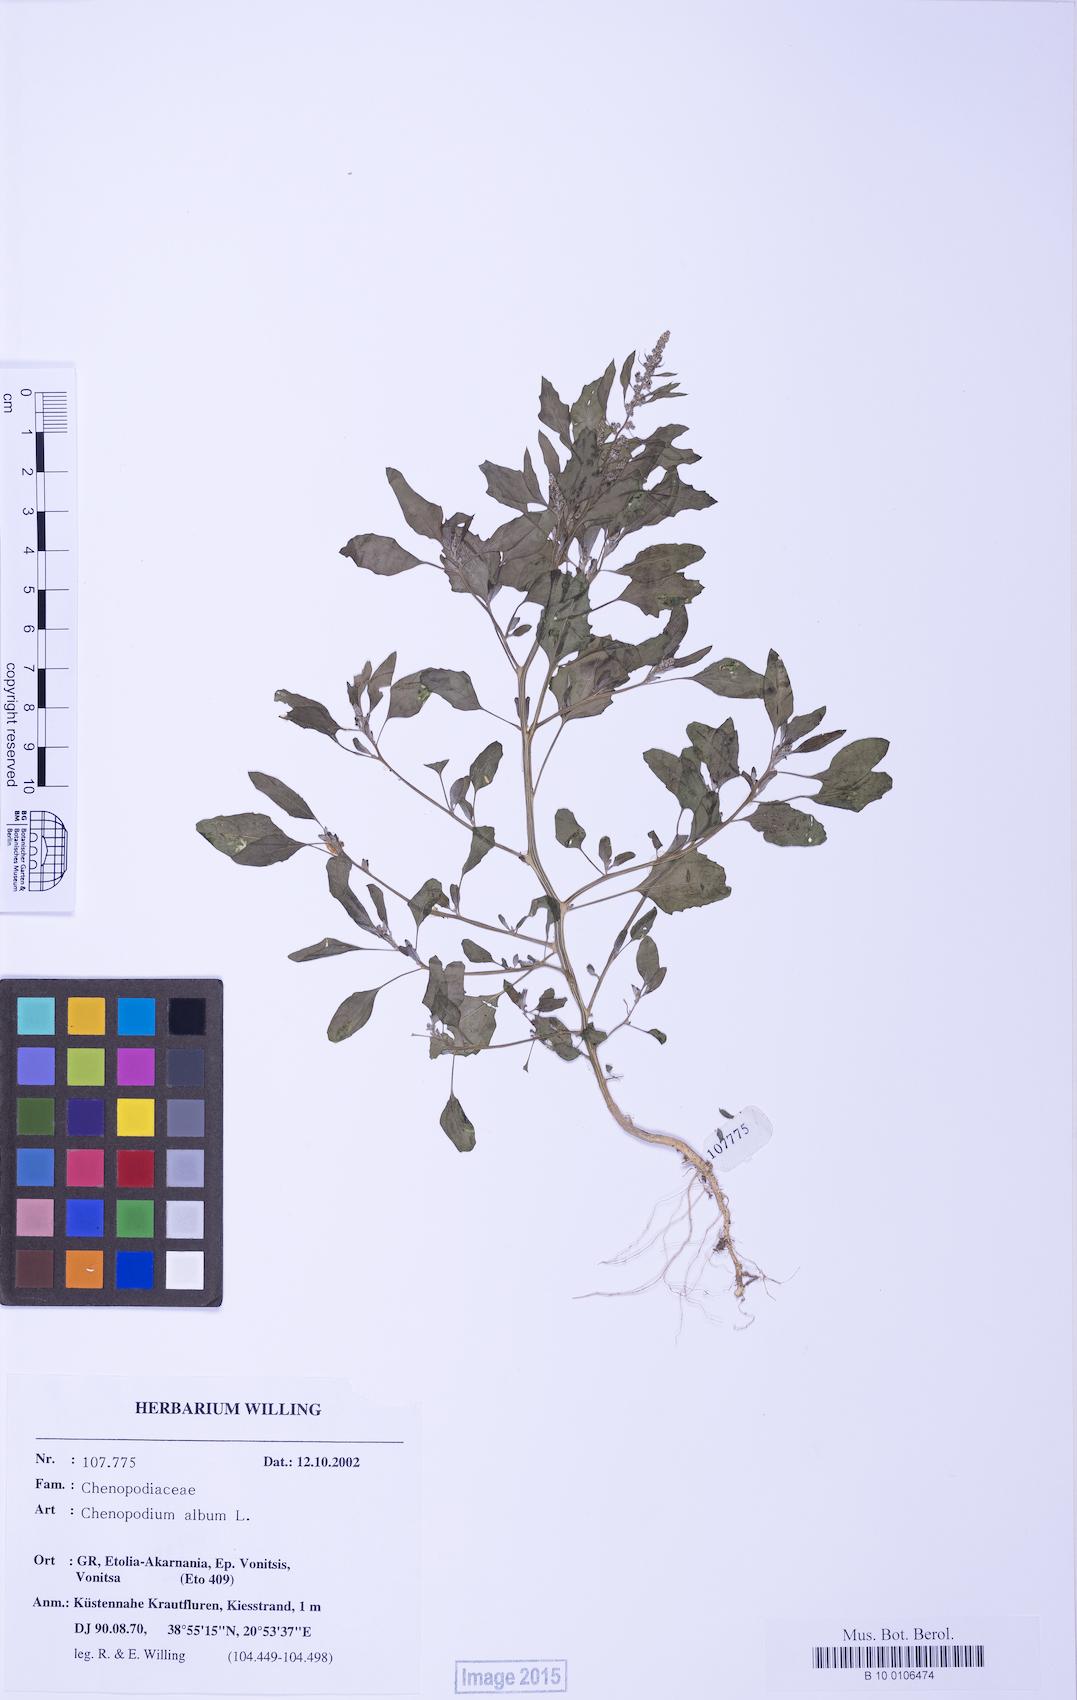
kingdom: Plantae
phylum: Tracheophyta
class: Magnoliopsida
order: Caryophyllales
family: Amaranthaceae
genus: Chenopodium
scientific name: Chenopodium striatiforme
